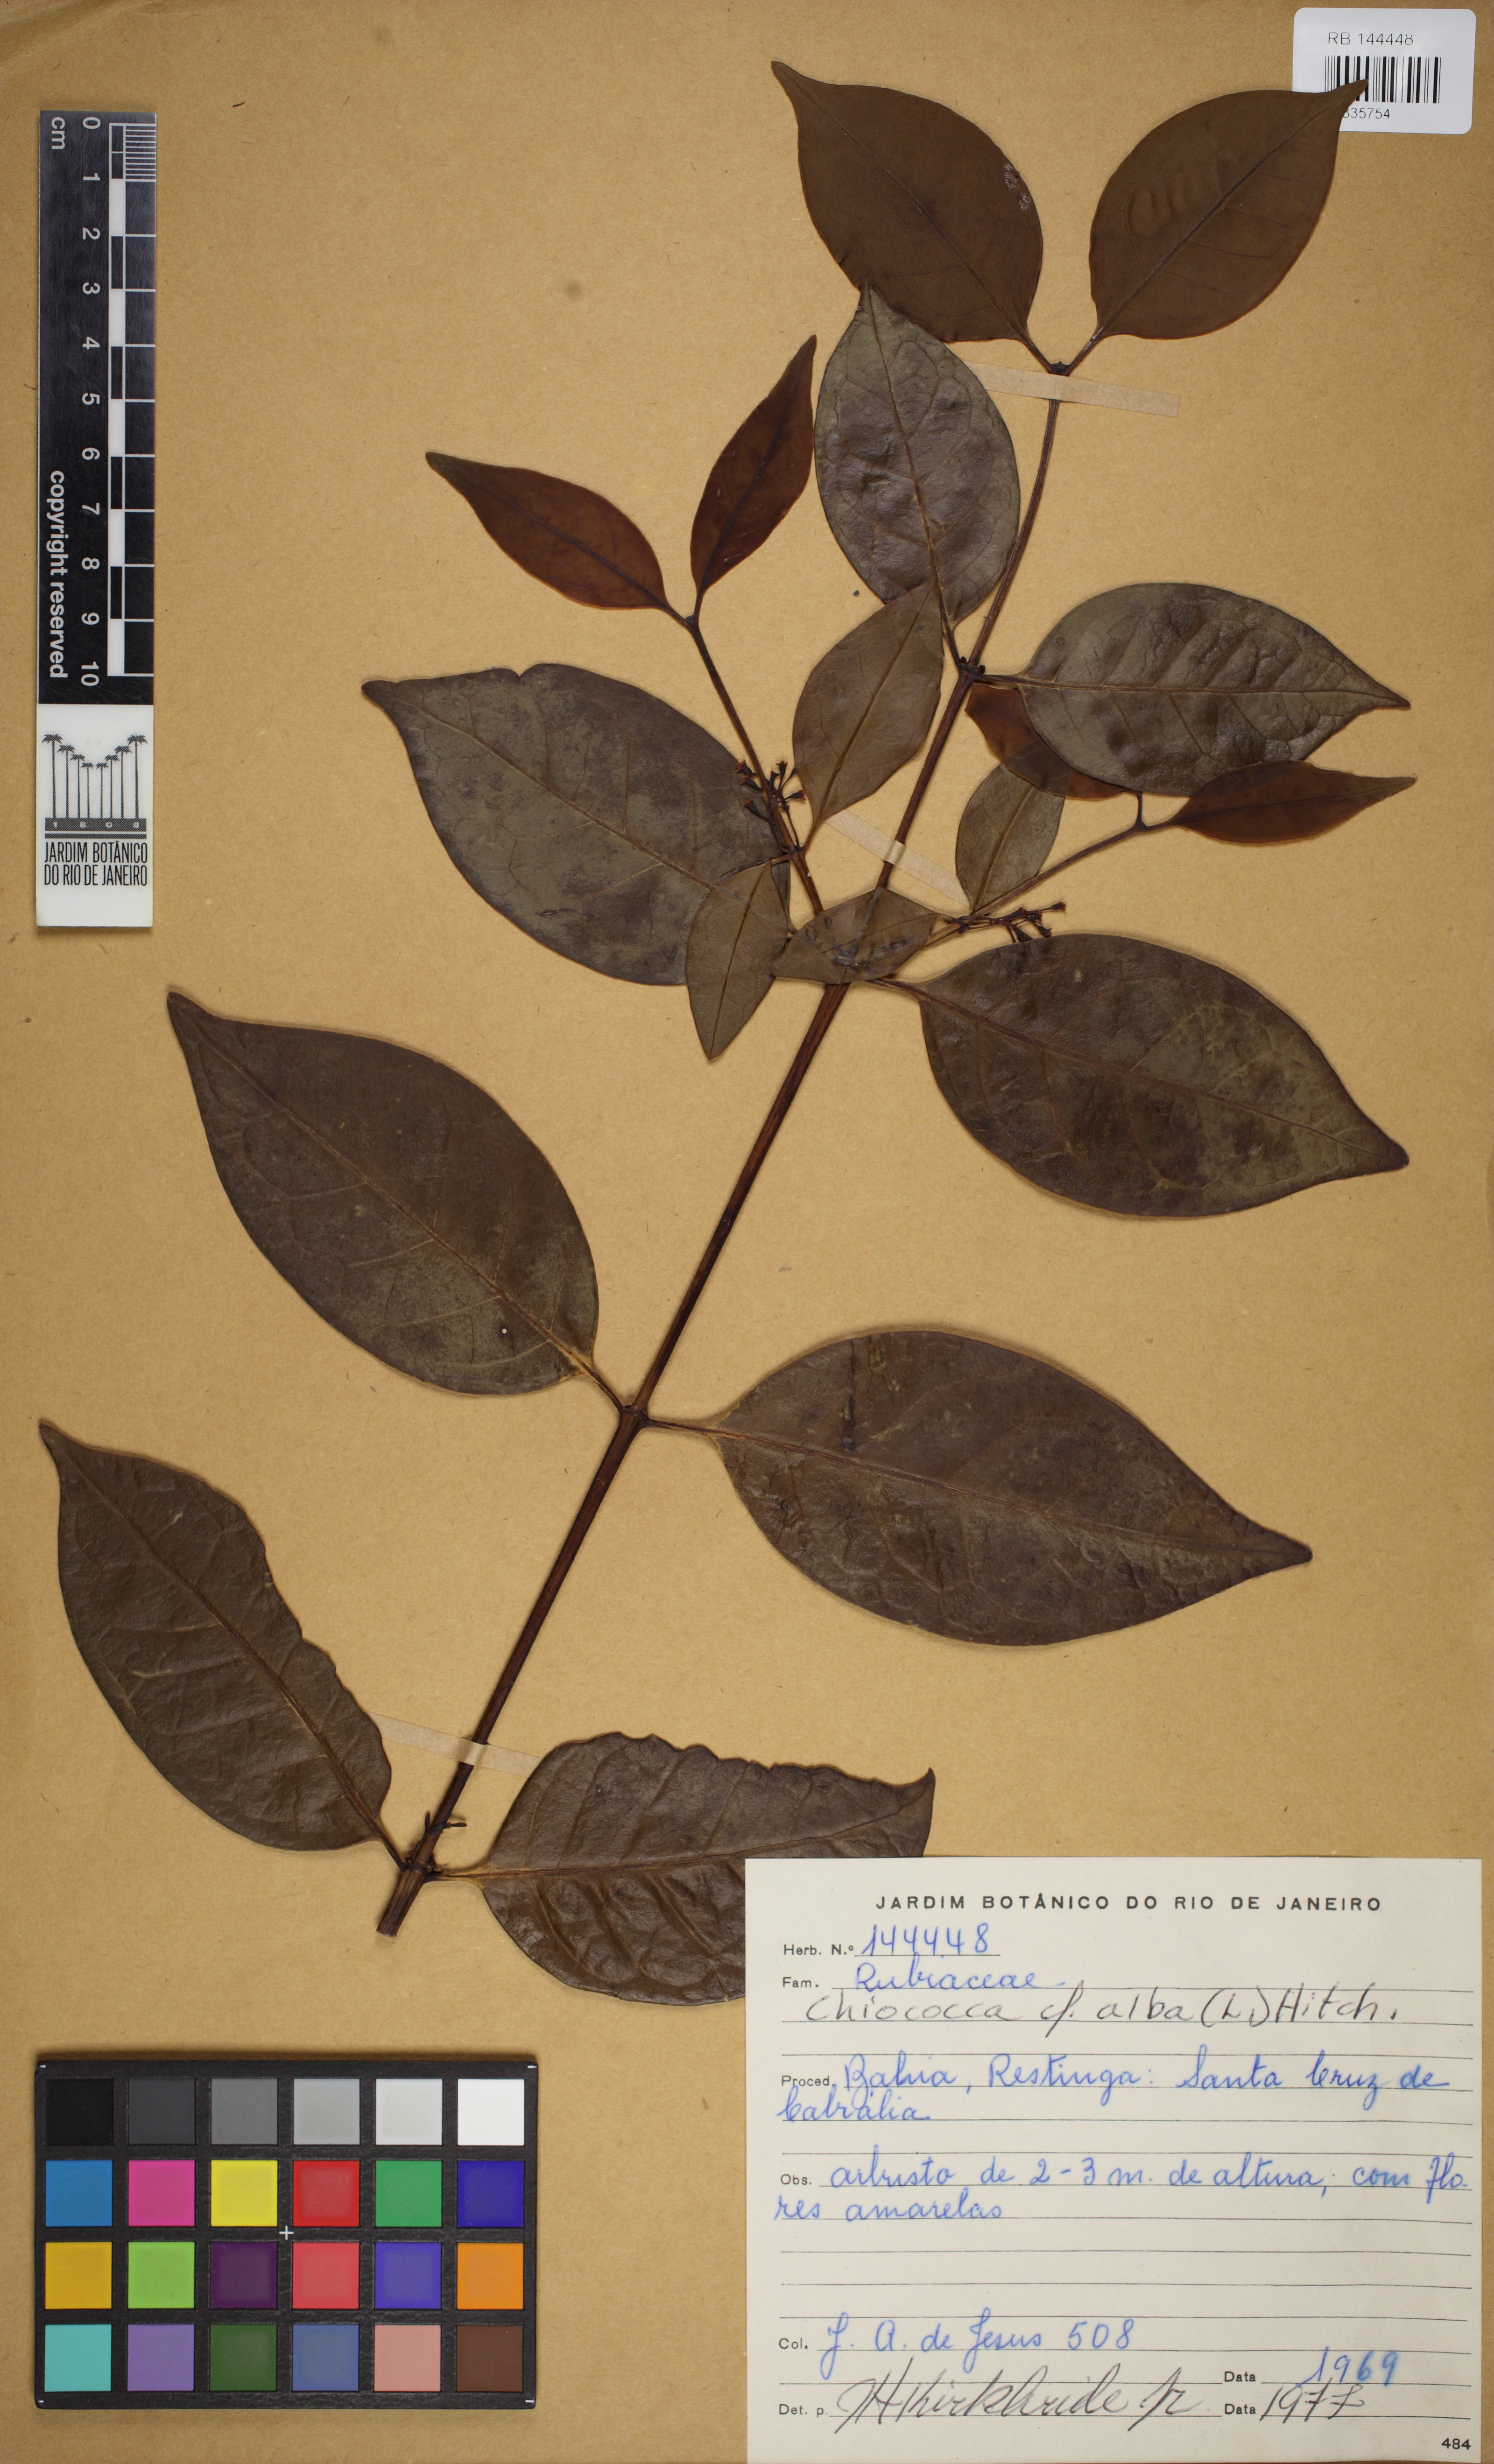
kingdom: Plantae
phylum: Tracheophyta
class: Magnoliopsida
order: Gentianales
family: Rubiaceae
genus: Chiococca
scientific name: Chiococca alba
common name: Snowberry
